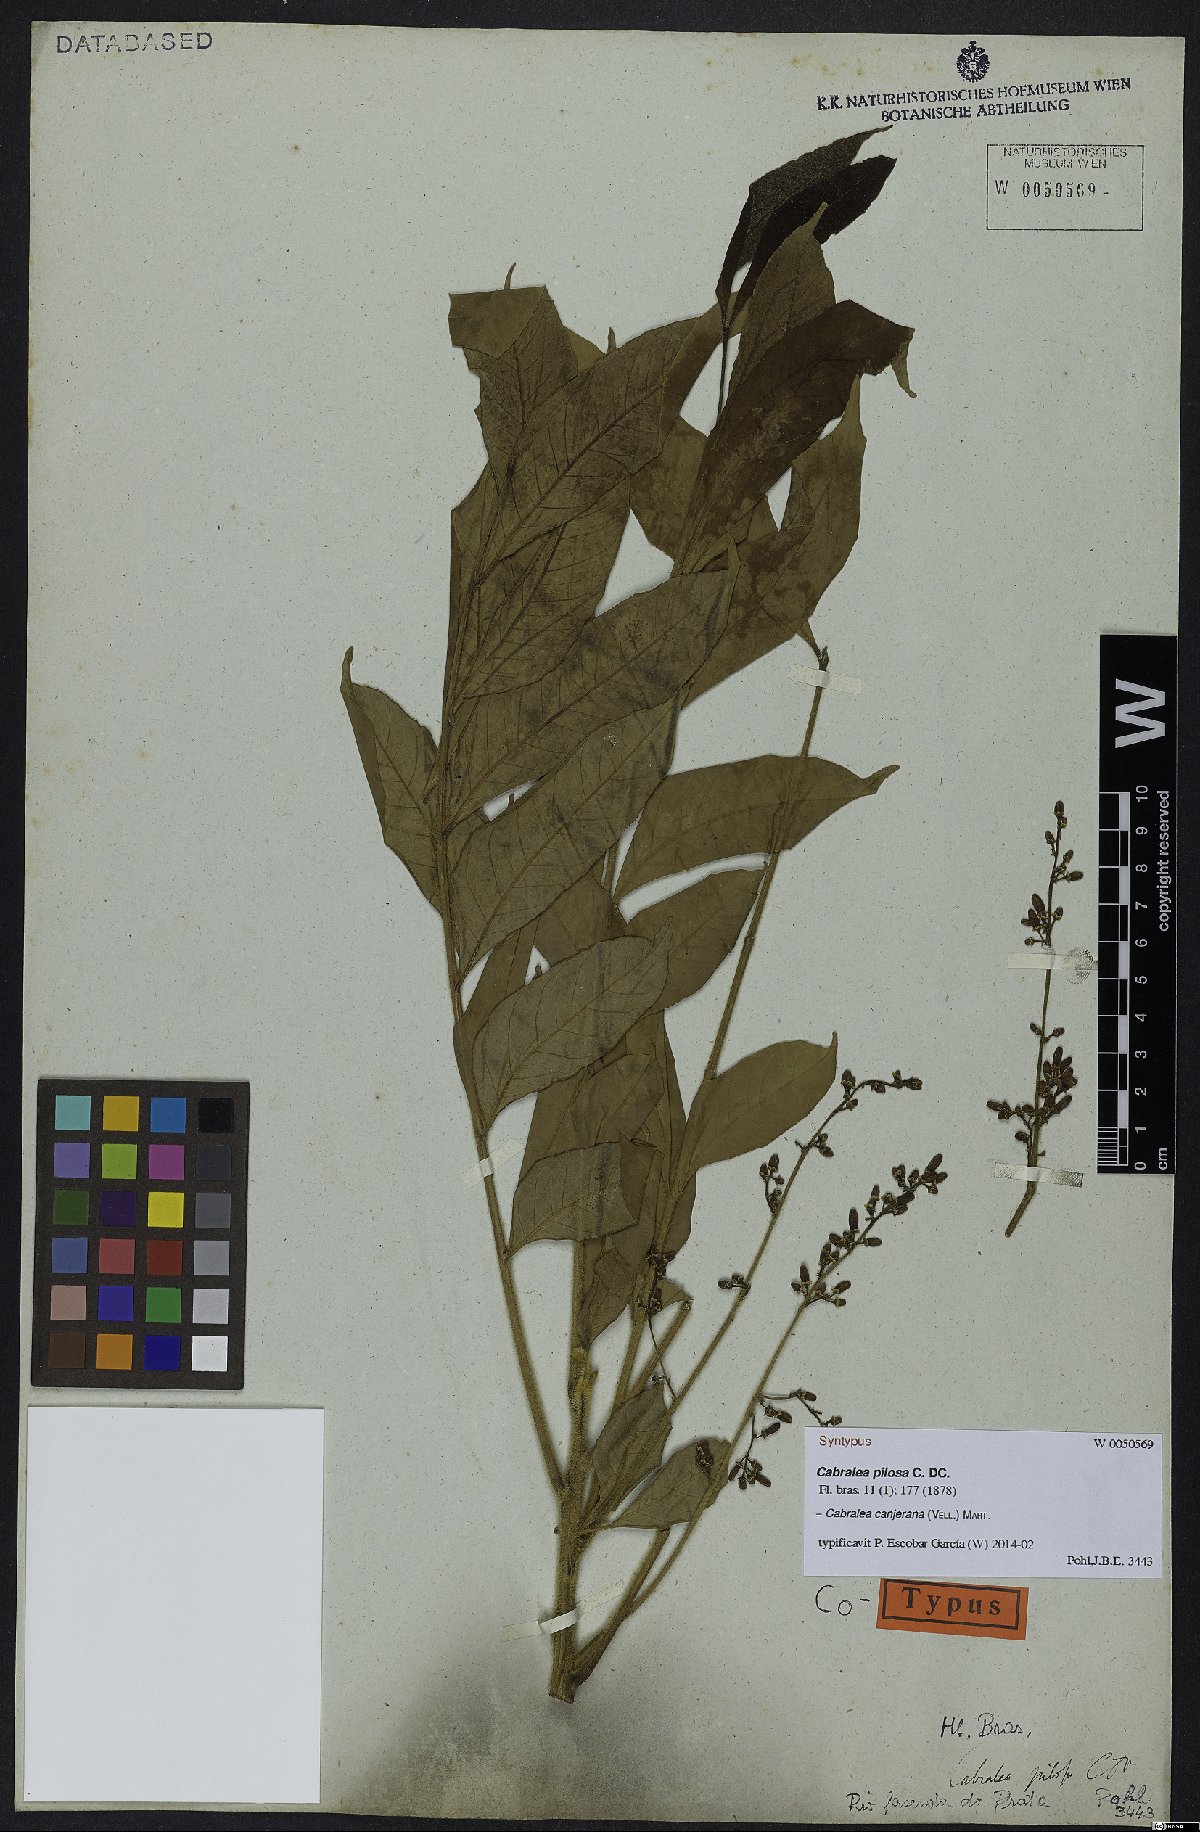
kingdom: Plantae
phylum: Tracheophyta
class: Magnoliopsida
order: Sapindales
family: Meliaceae
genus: Cabralea
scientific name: Cabralea canjerana
